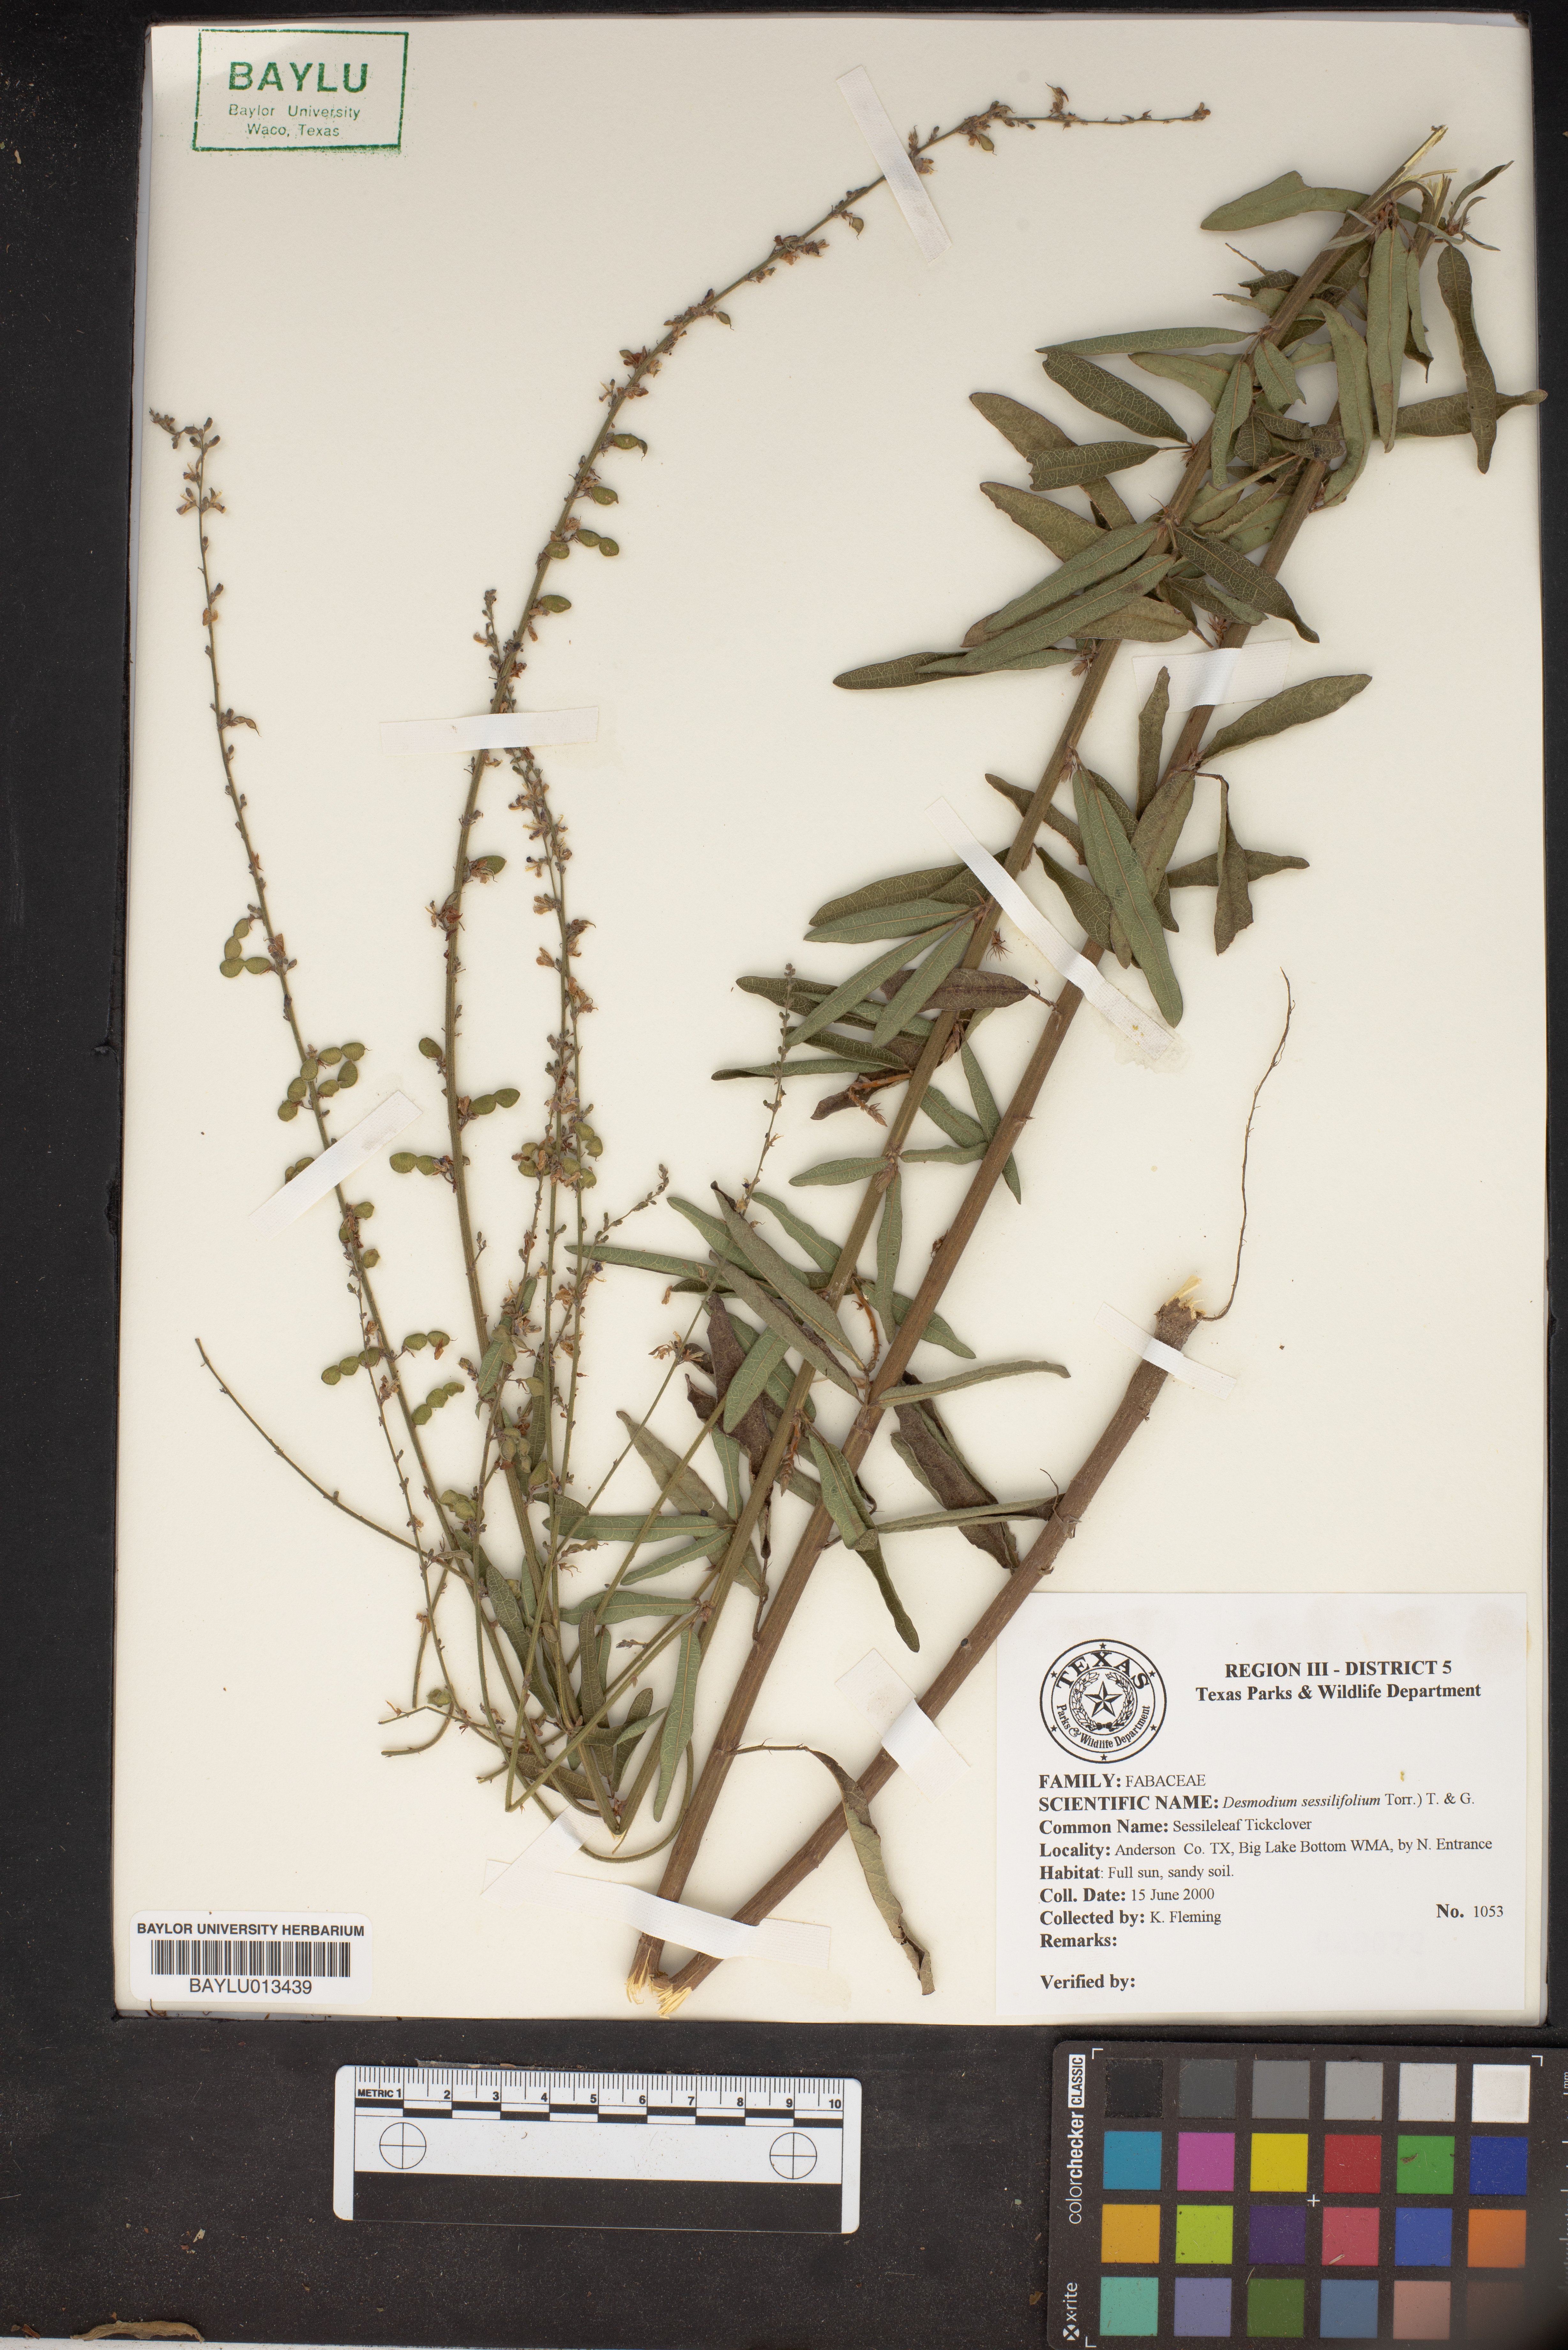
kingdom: Plantae
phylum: Tracheophyta
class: Magnoliopsida
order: Fabales
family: Fabaceae
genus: Desmodium
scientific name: Desmodium sessilifolium
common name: Sessile tick-clover
